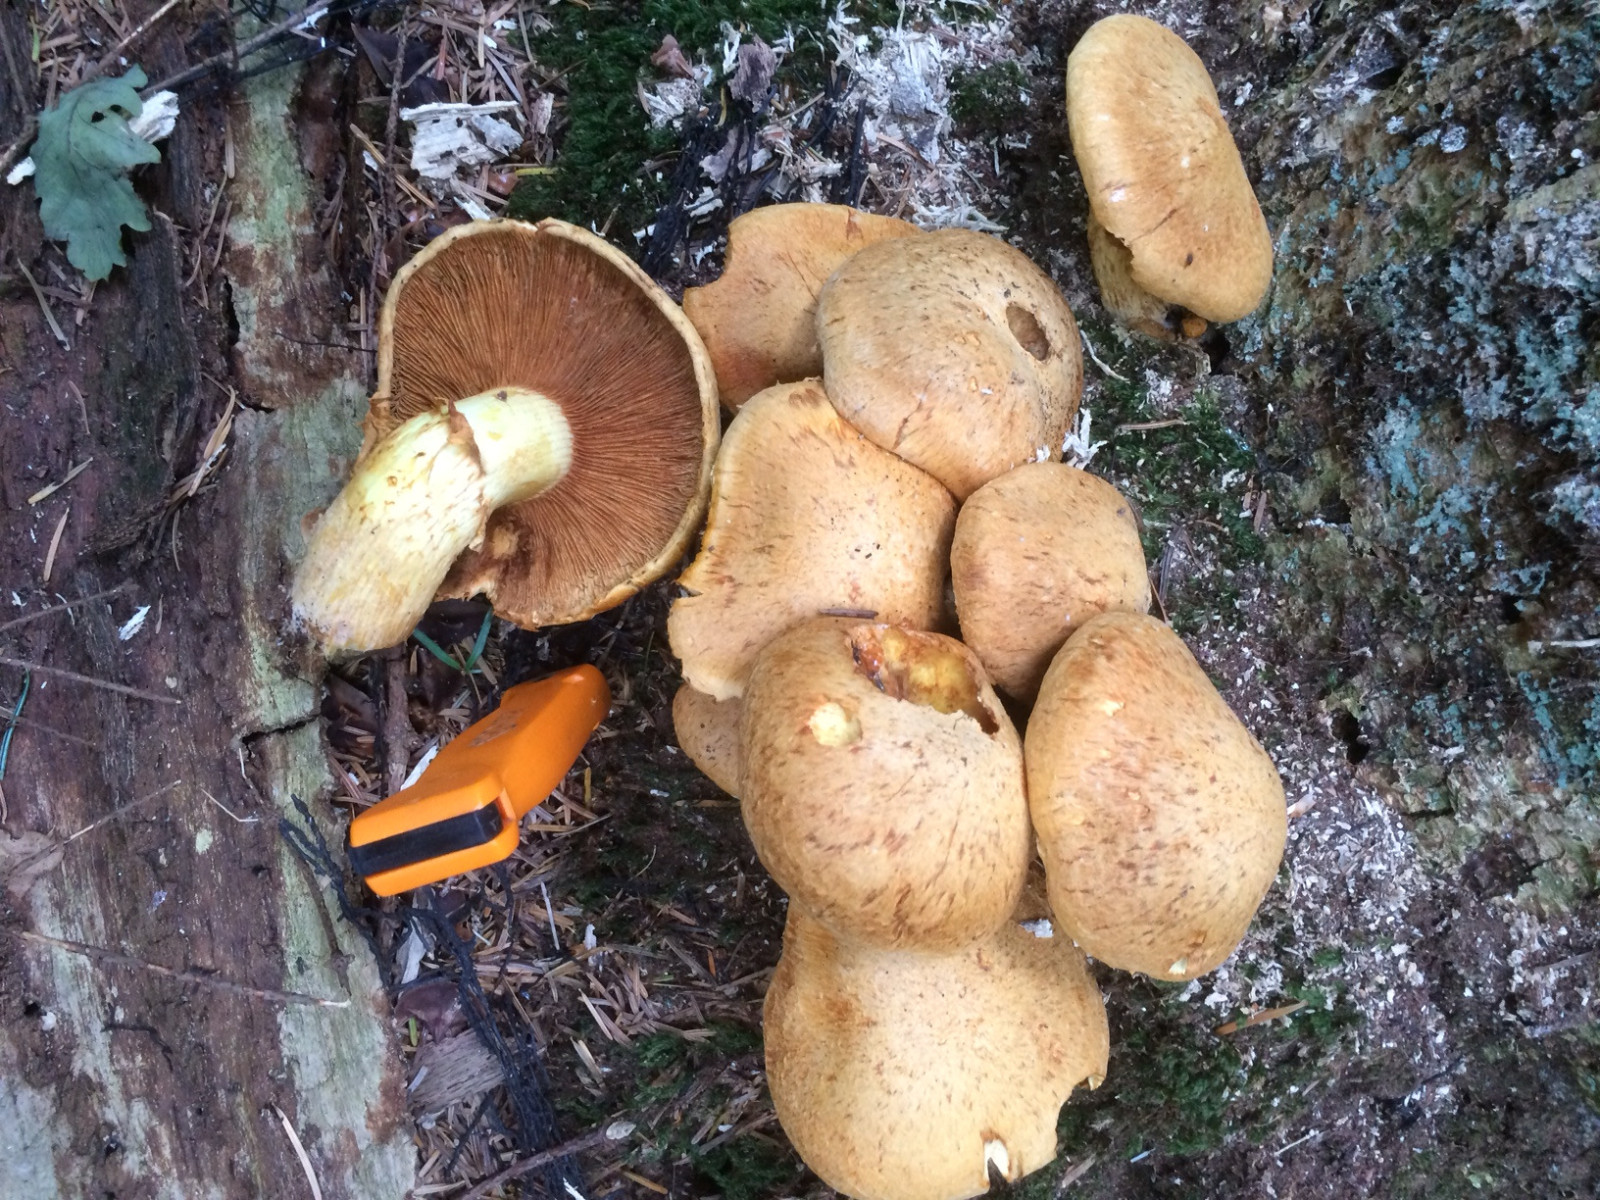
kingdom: Fungi
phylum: Basidiomycota
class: Agaricomycetes
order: Agaricales
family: Hymenogastraceae
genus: Gymnopilus
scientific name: Gymnopilus spectabilis
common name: fibret flammehat
